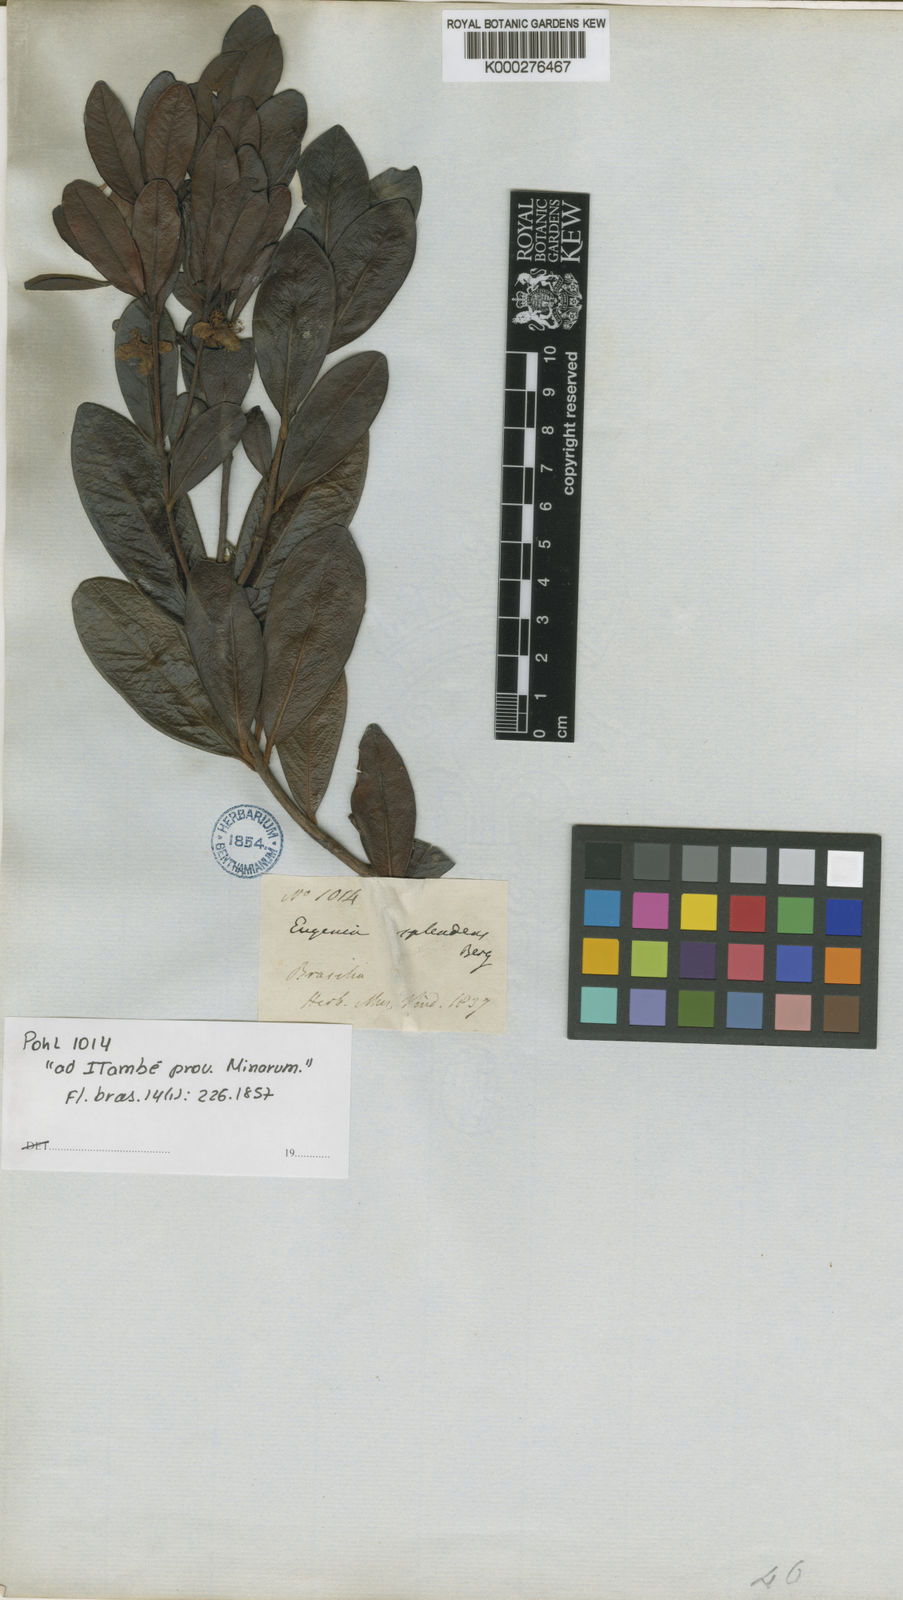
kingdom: Plantae
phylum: Tracheophyta
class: Magnoliopsida
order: Myrtales
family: Myrtaceae
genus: Eugenia
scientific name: Eugenia splendens
